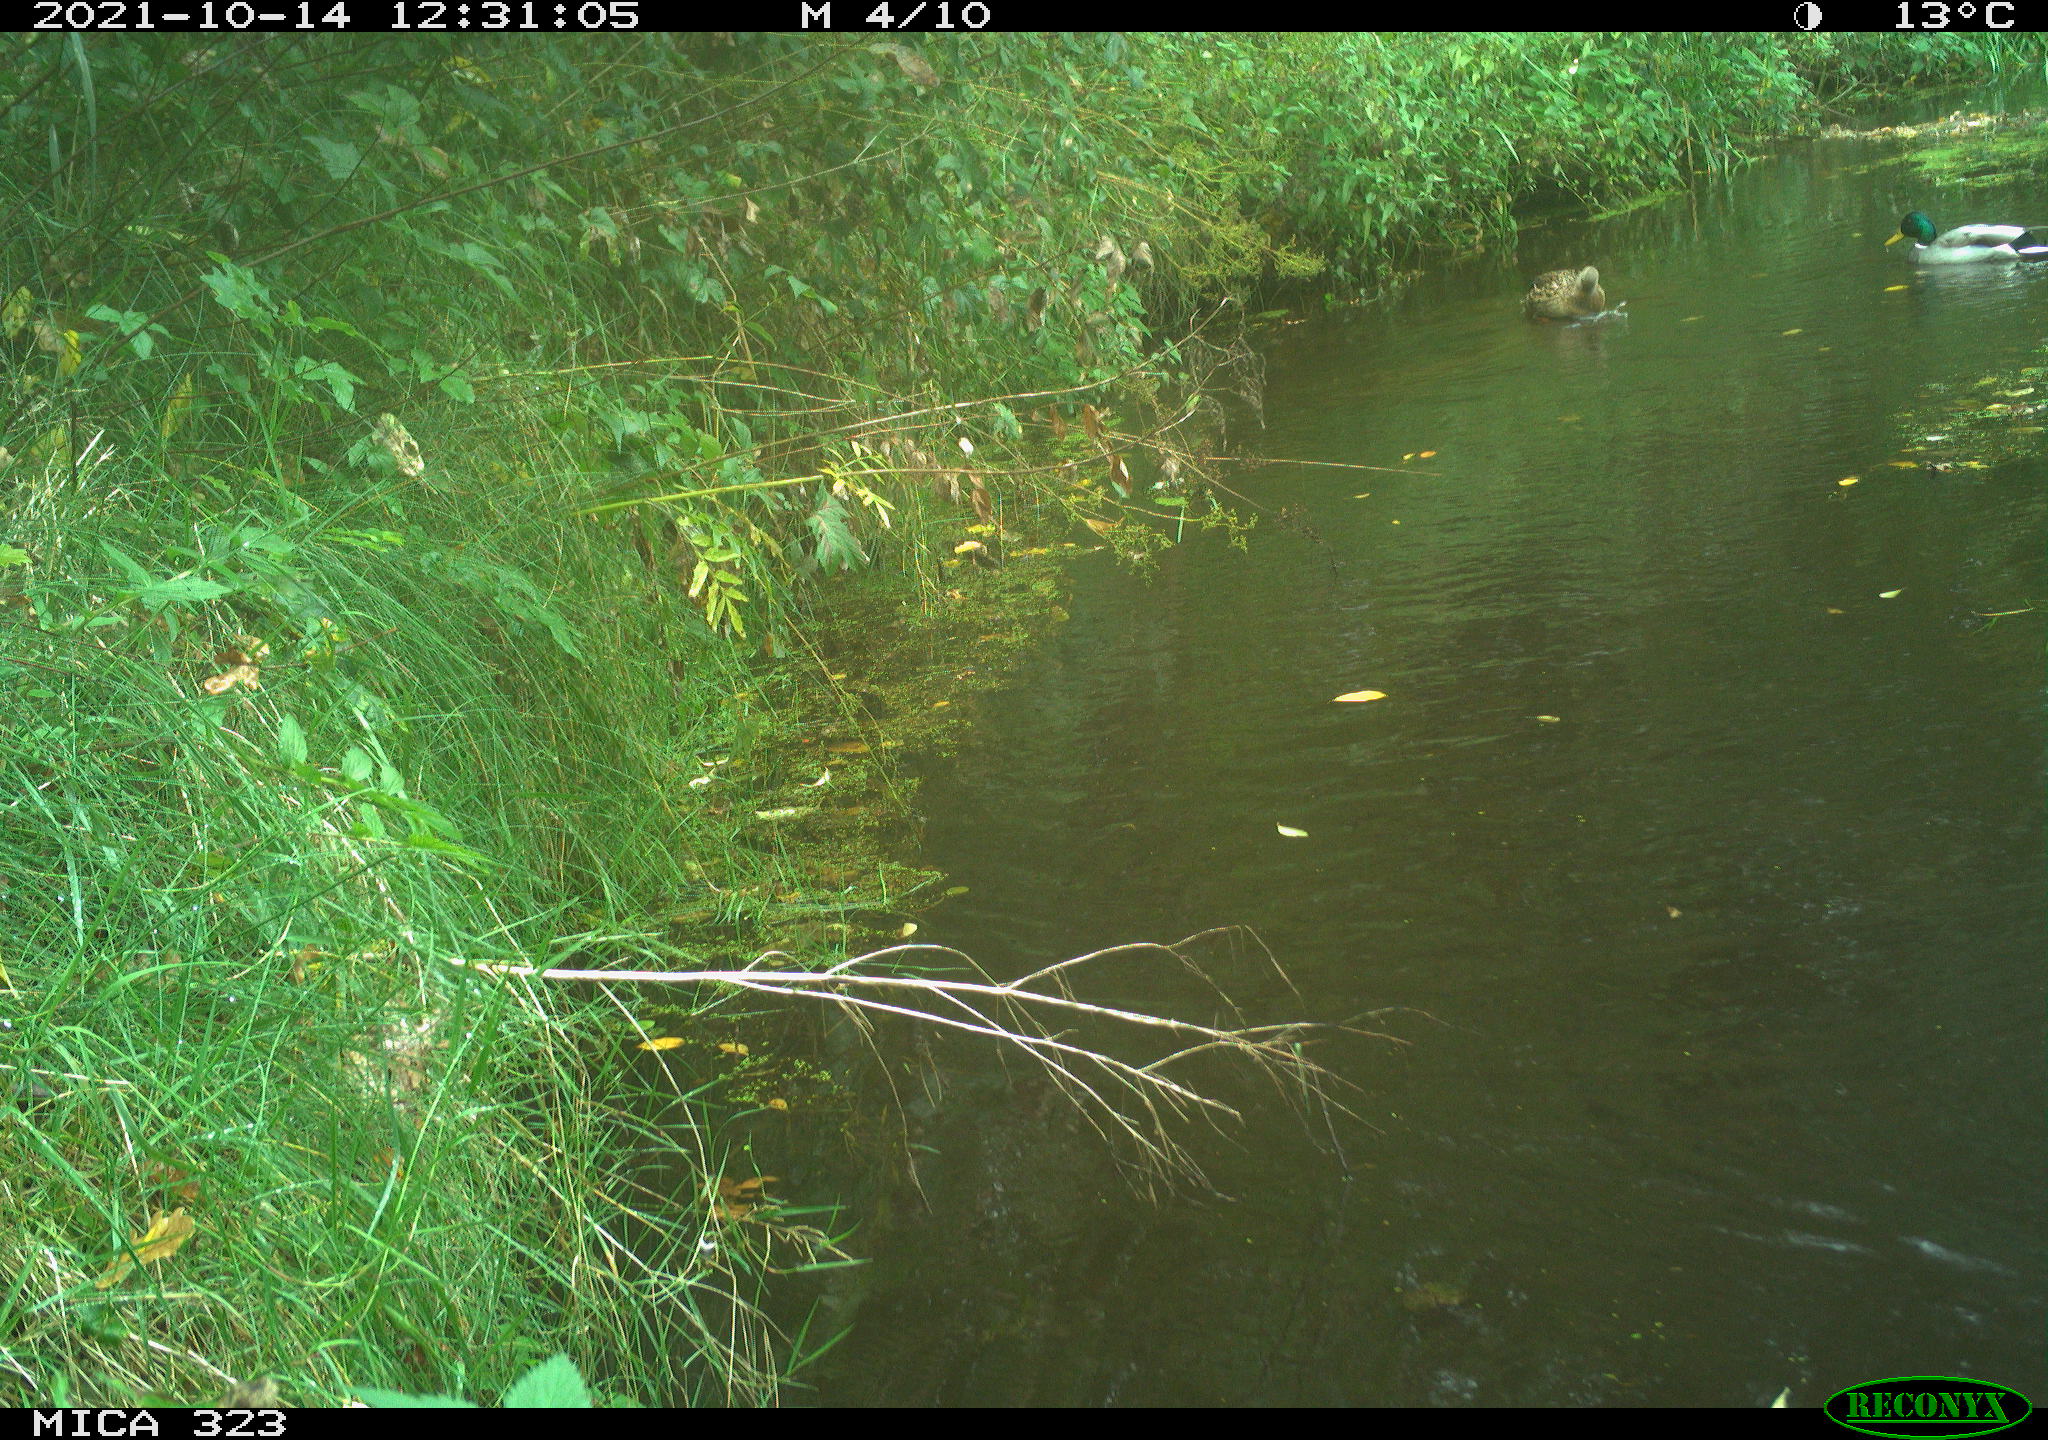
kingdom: Animalia
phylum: Chordata
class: Aves
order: Anseriformes
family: Anatidae
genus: Anas
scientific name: Anas platyrhynchos
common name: Mallard
